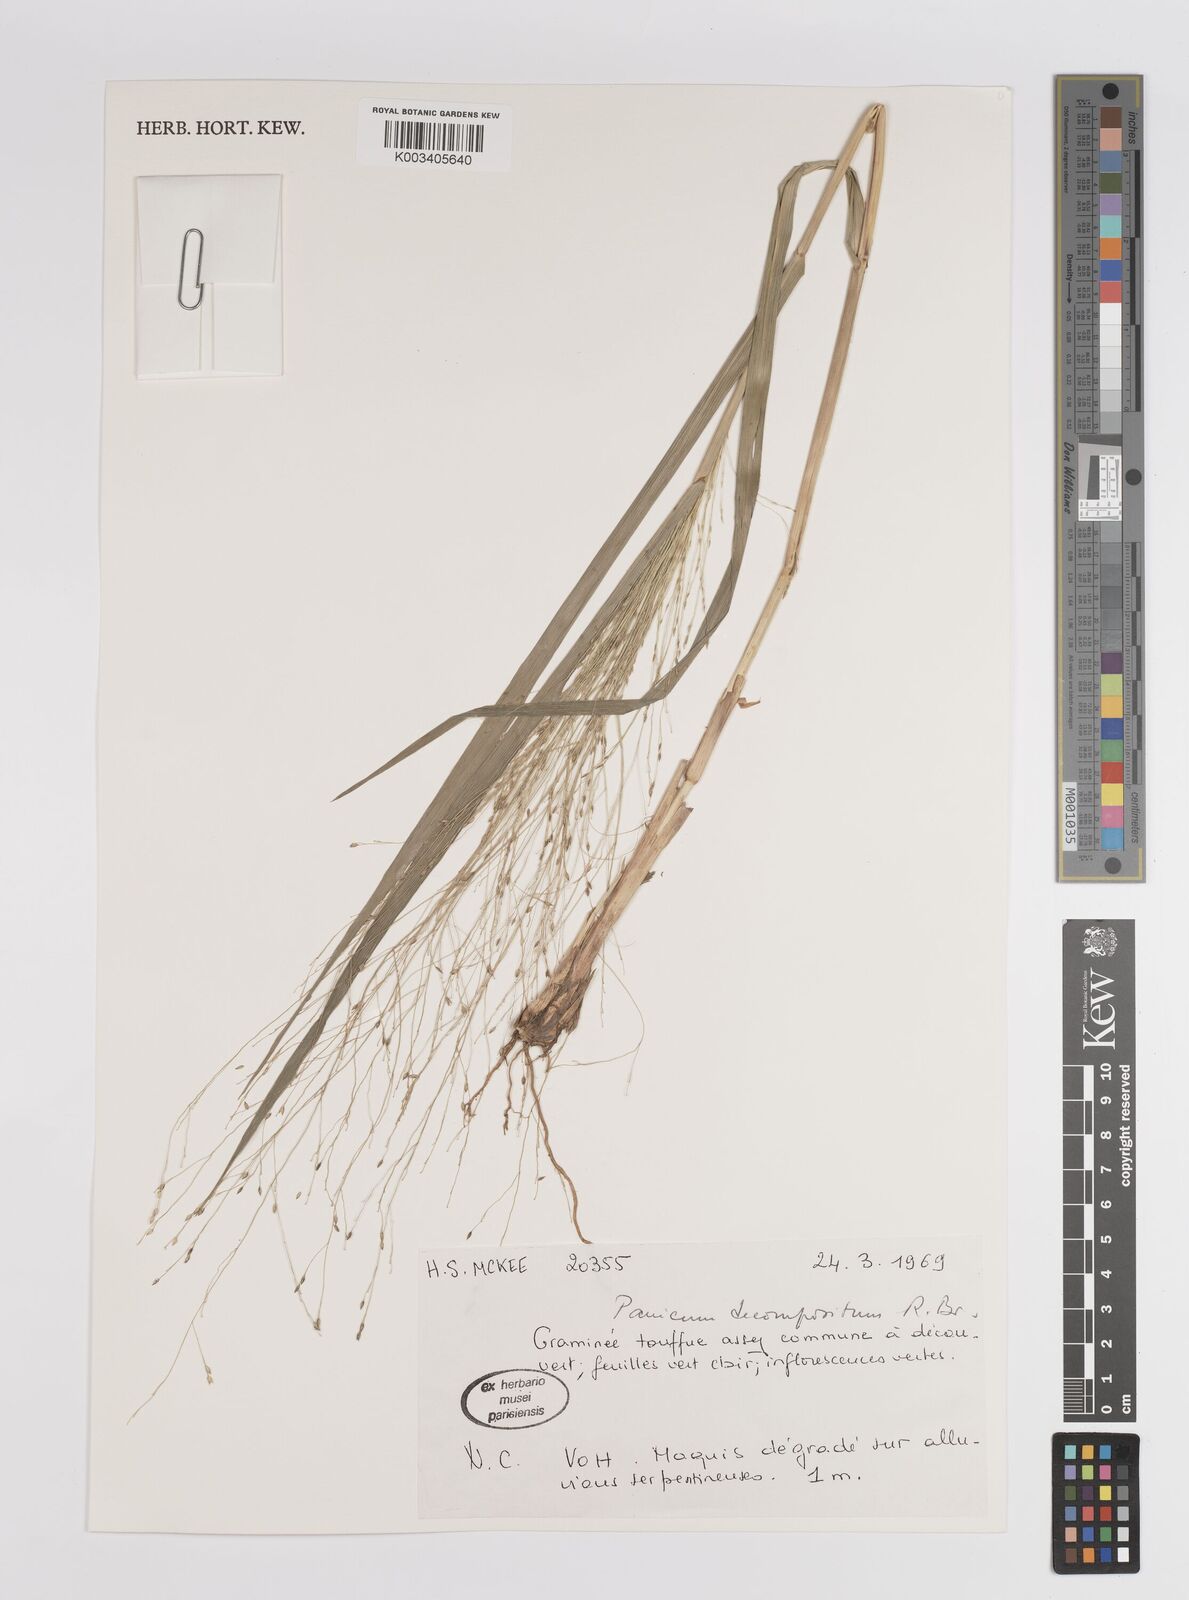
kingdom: Plantae
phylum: Tracheophyta
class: Liliopsida
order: Poales
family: Poaceae
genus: Panicum
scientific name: Panicum decompositum
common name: Australian millet
